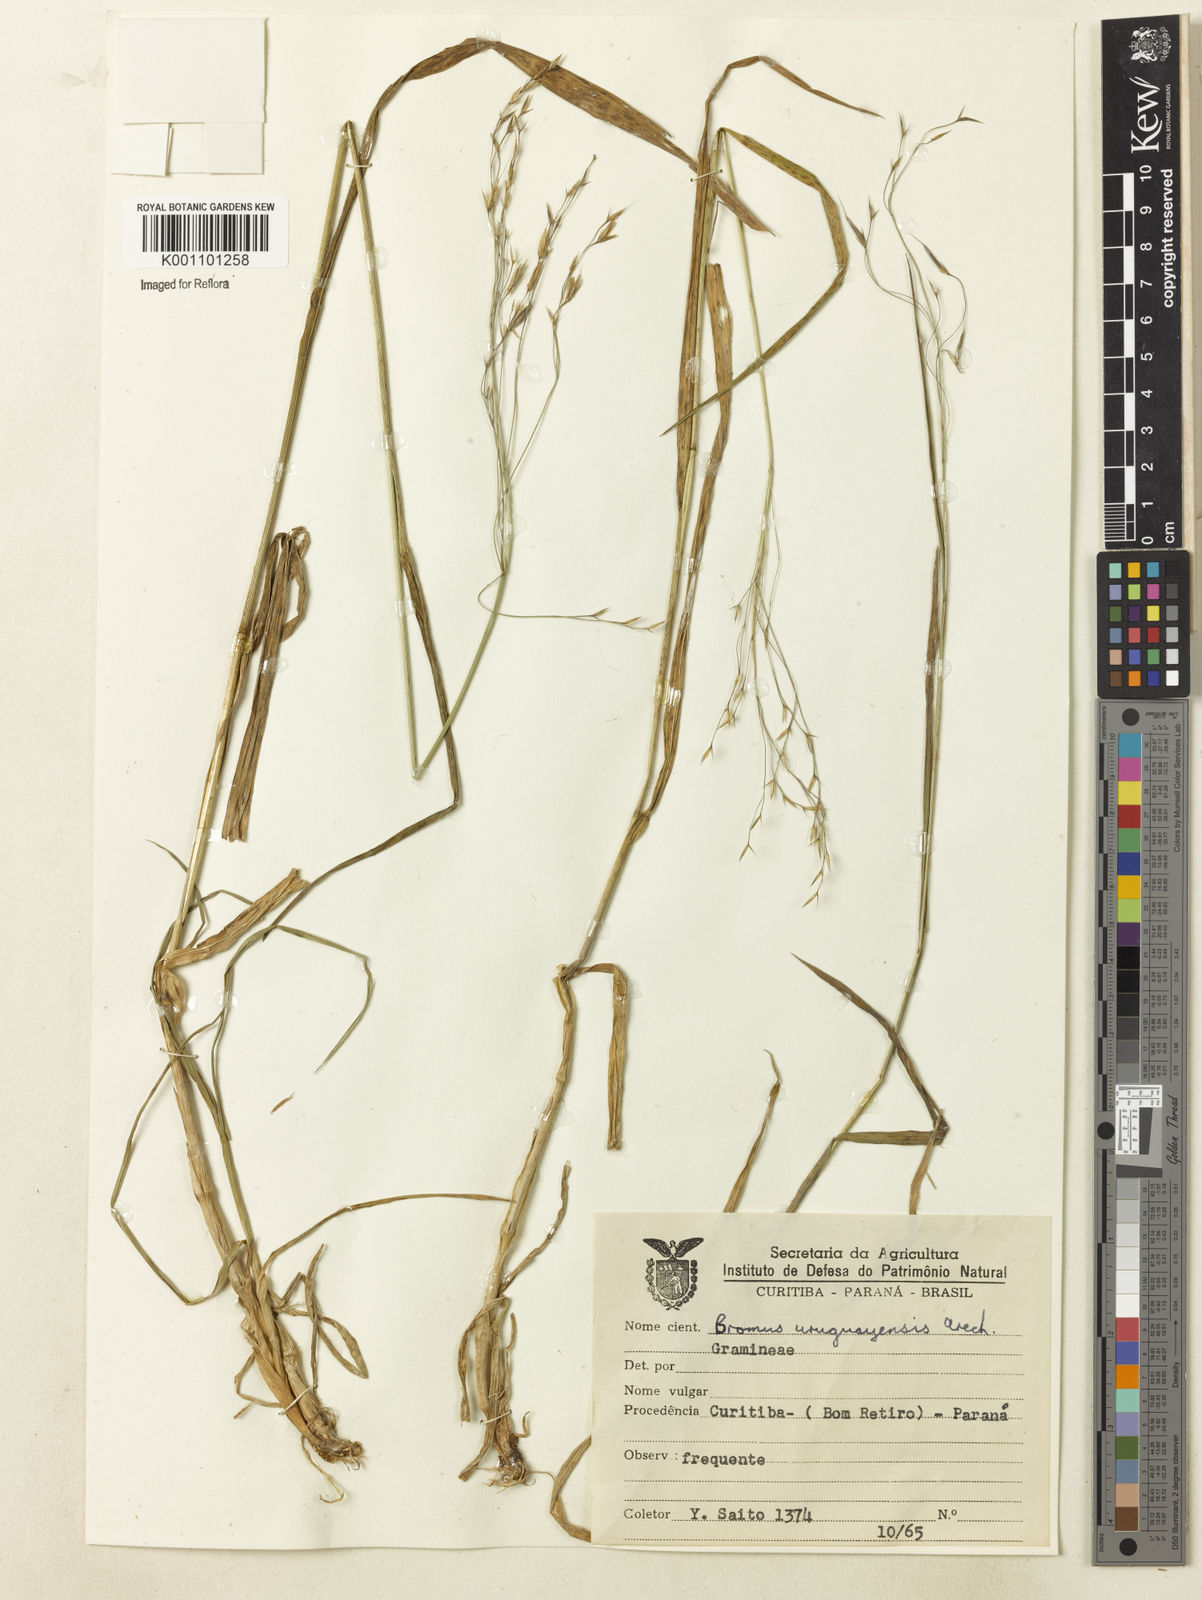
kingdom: Plantae
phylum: Tracheophyta
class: Liliopsida
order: Poales
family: Poaceae
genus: Bromus
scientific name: Bromus
